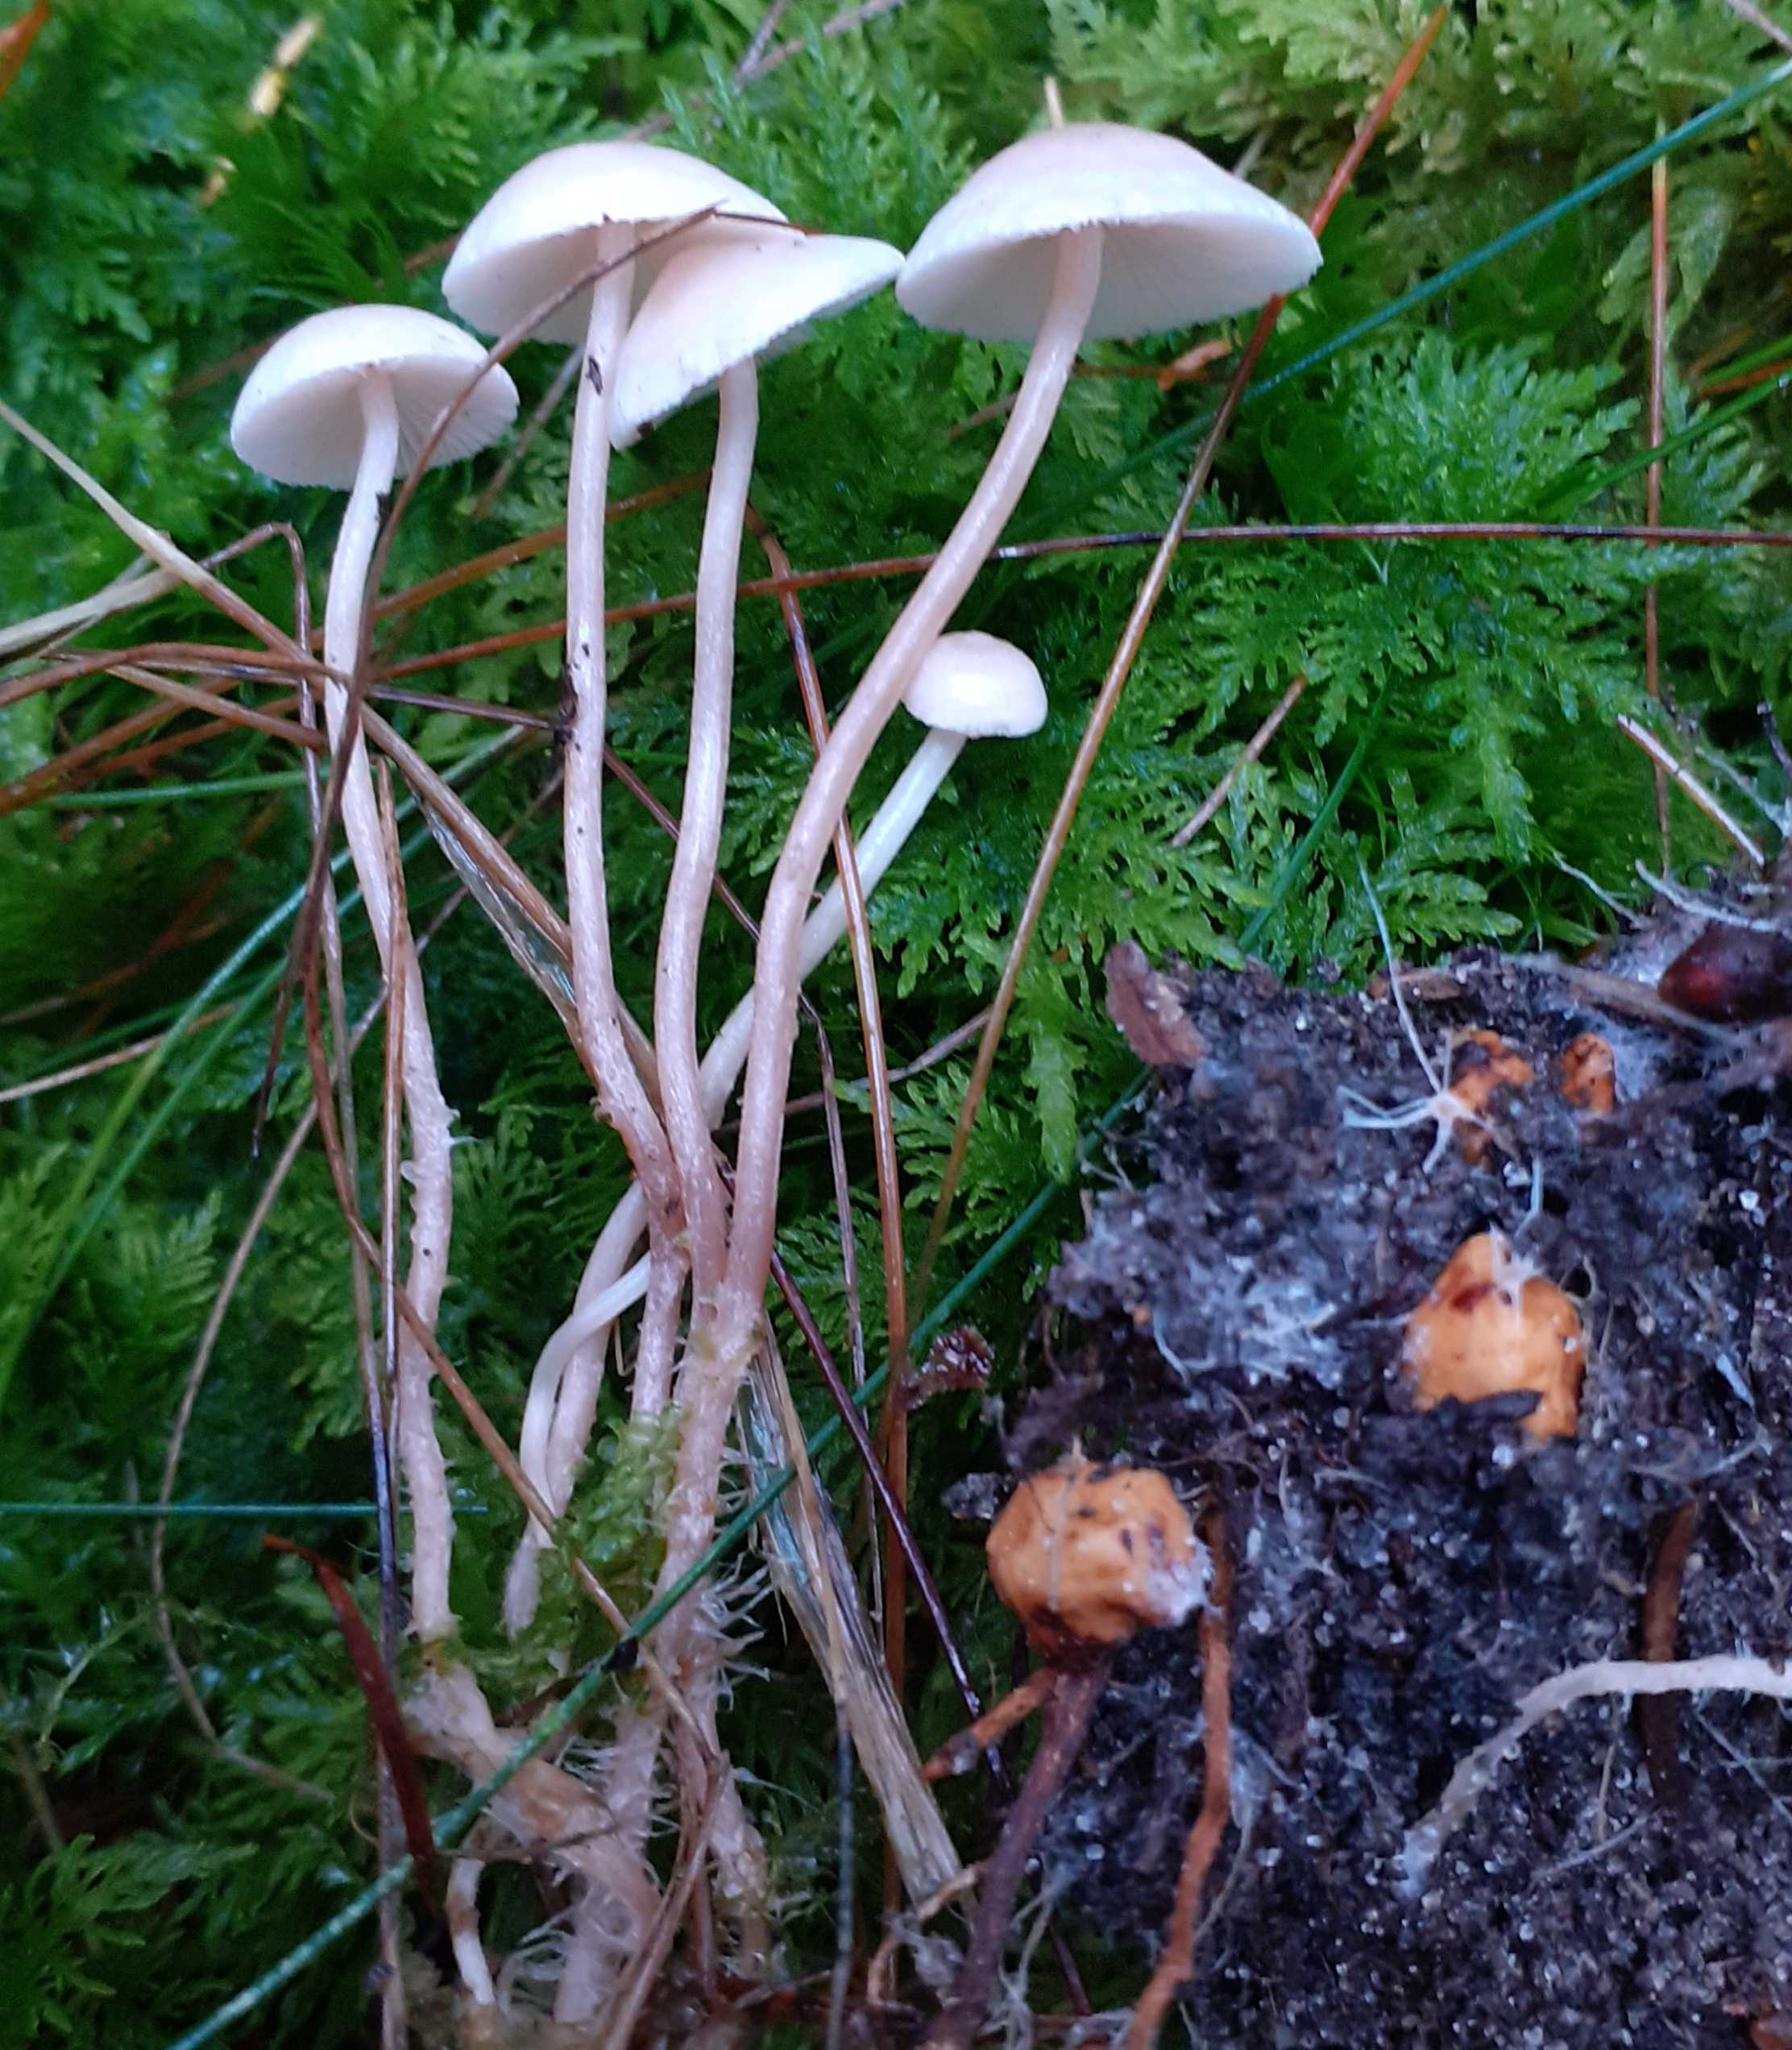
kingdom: Fungi
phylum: Basidiomycota
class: Agaricomycetes
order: Agaricales
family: Tricholomataceae
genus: Collybia
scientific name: Collybia cookei
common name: gulknoldet lighat
